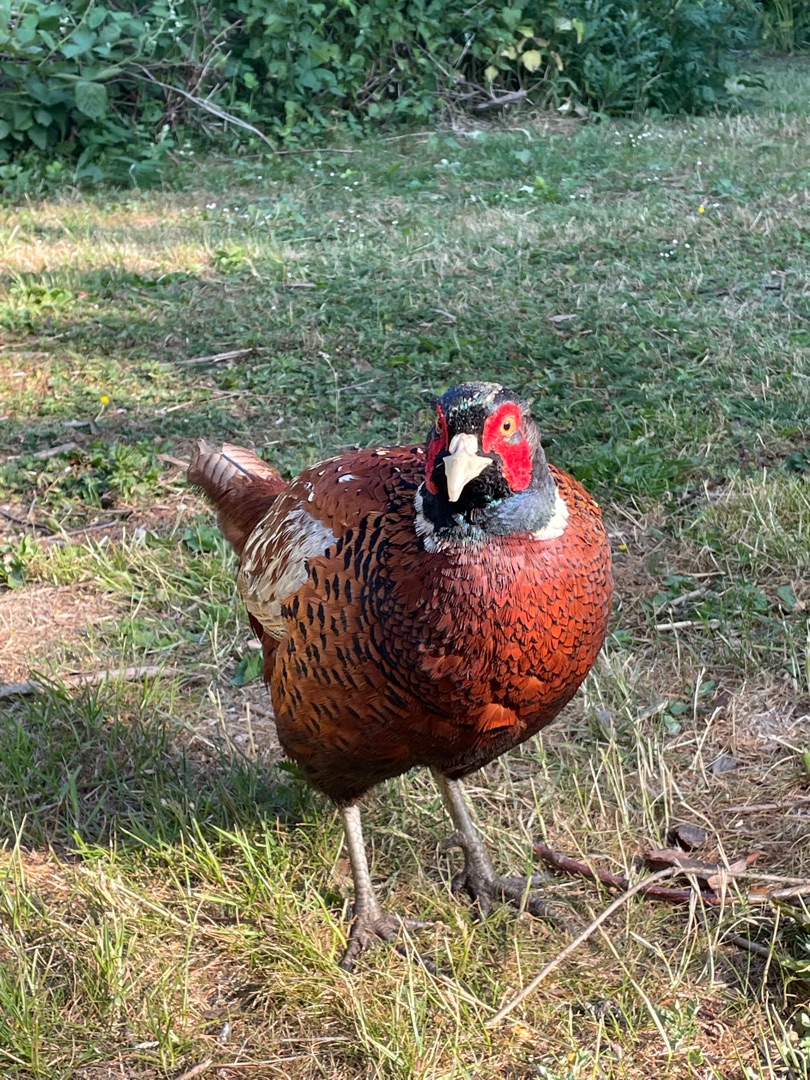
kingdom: Animalia
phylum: Chordata
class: Aves
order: Galliformes
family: Phasianidae
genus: Phasianus
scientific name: Phasianus colchicus
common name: Fasan
